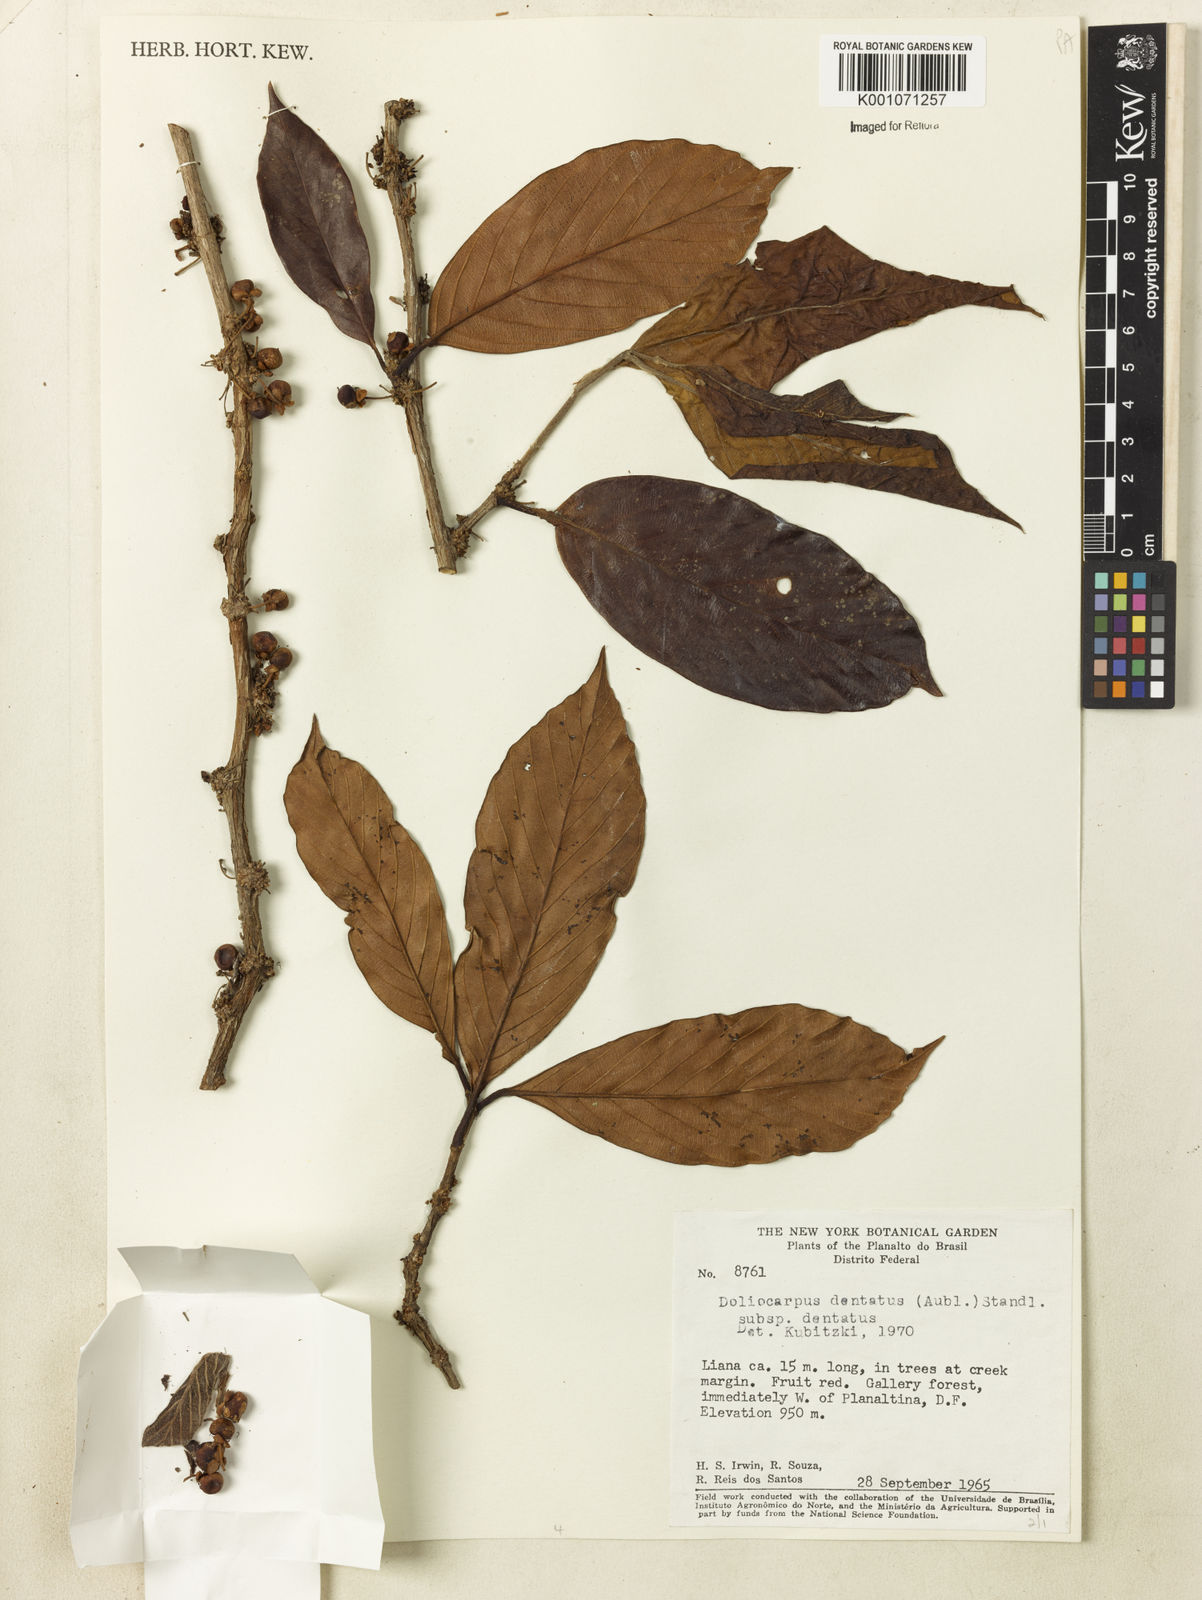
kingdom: Plantae
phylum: Tracheophyta
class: Magnoliopsida
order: Dilleniales
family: Dilleniaceae
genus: Doliocarpus
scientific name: Doliocarpus dentatus
